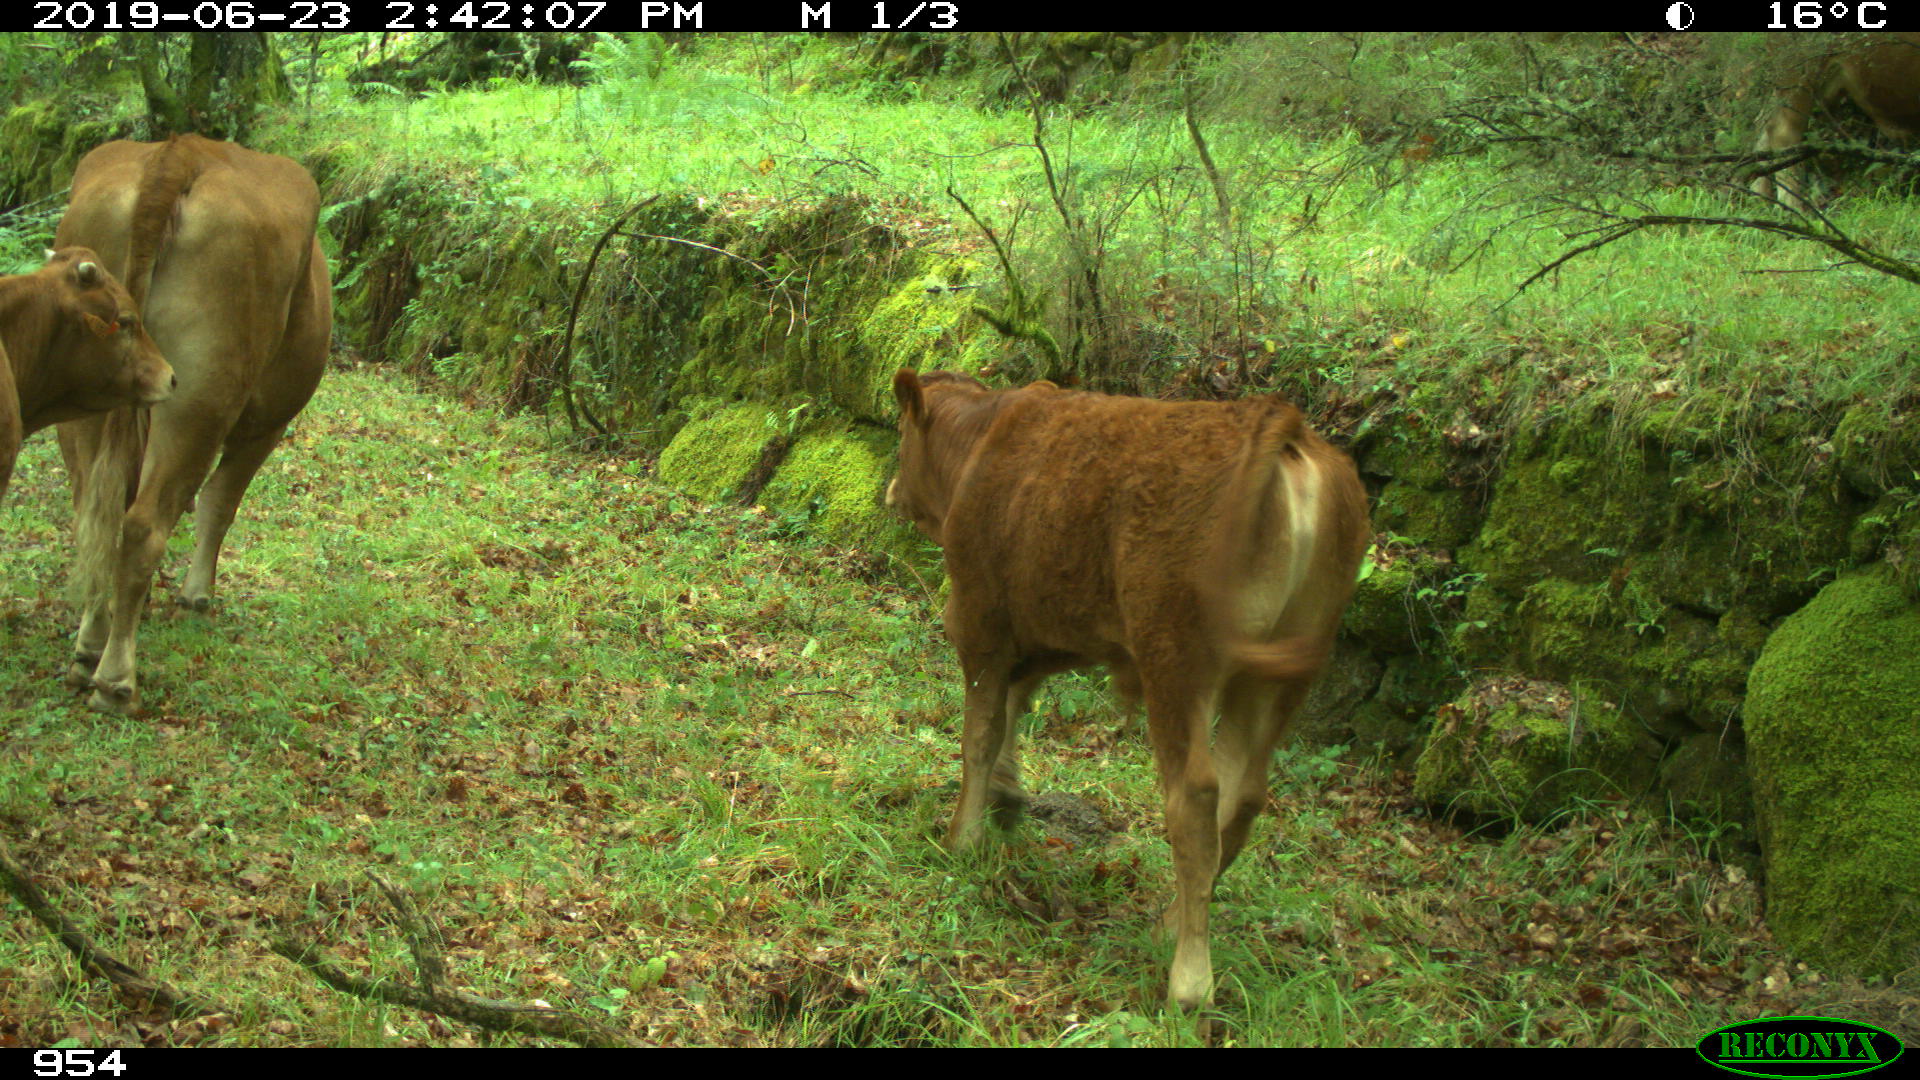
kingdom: Animalia
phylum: Chordata
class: Mammalia
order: Artiodactyla
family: Bovidae
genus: Bos
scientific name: Bos taurus
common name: Domesticated cattle
